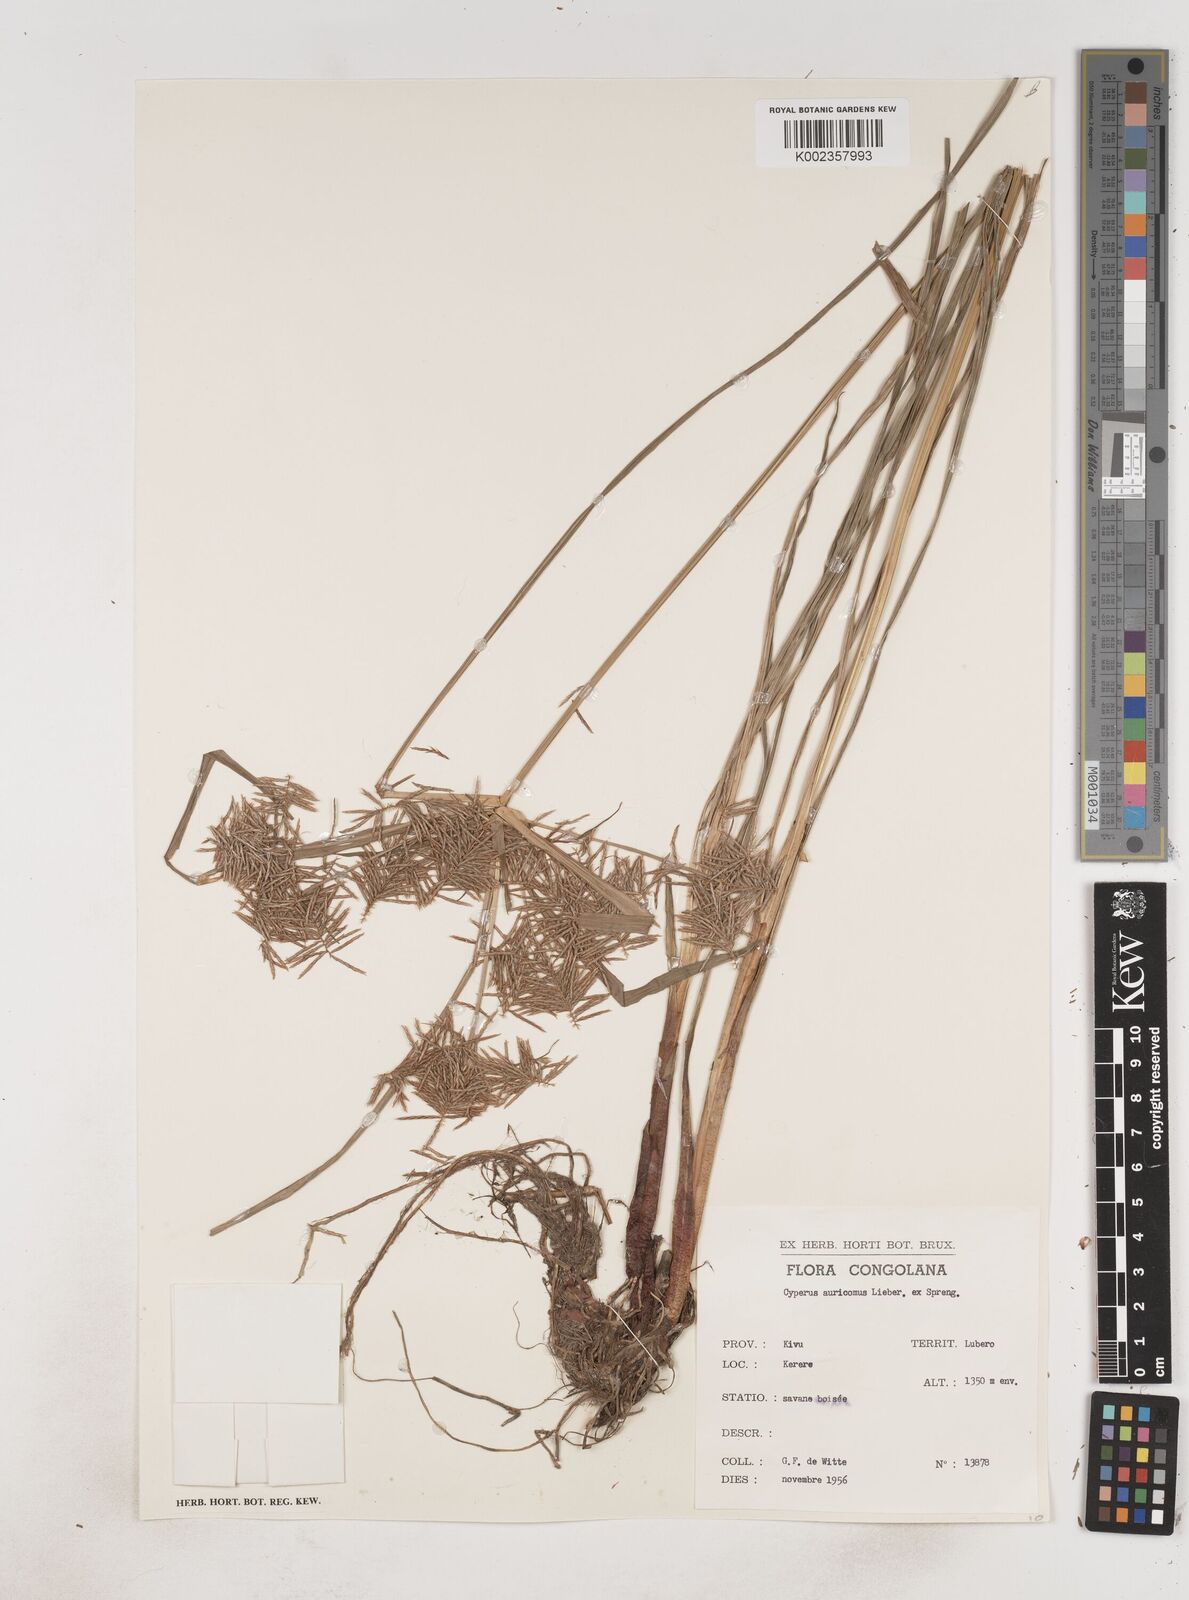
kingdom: Plantae
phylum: Tracheophyta
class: Liliopsida
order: Poales
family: Cyperaceae
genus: Cyperus
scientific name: Cyperus digitatus
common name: Finger flatsedge
